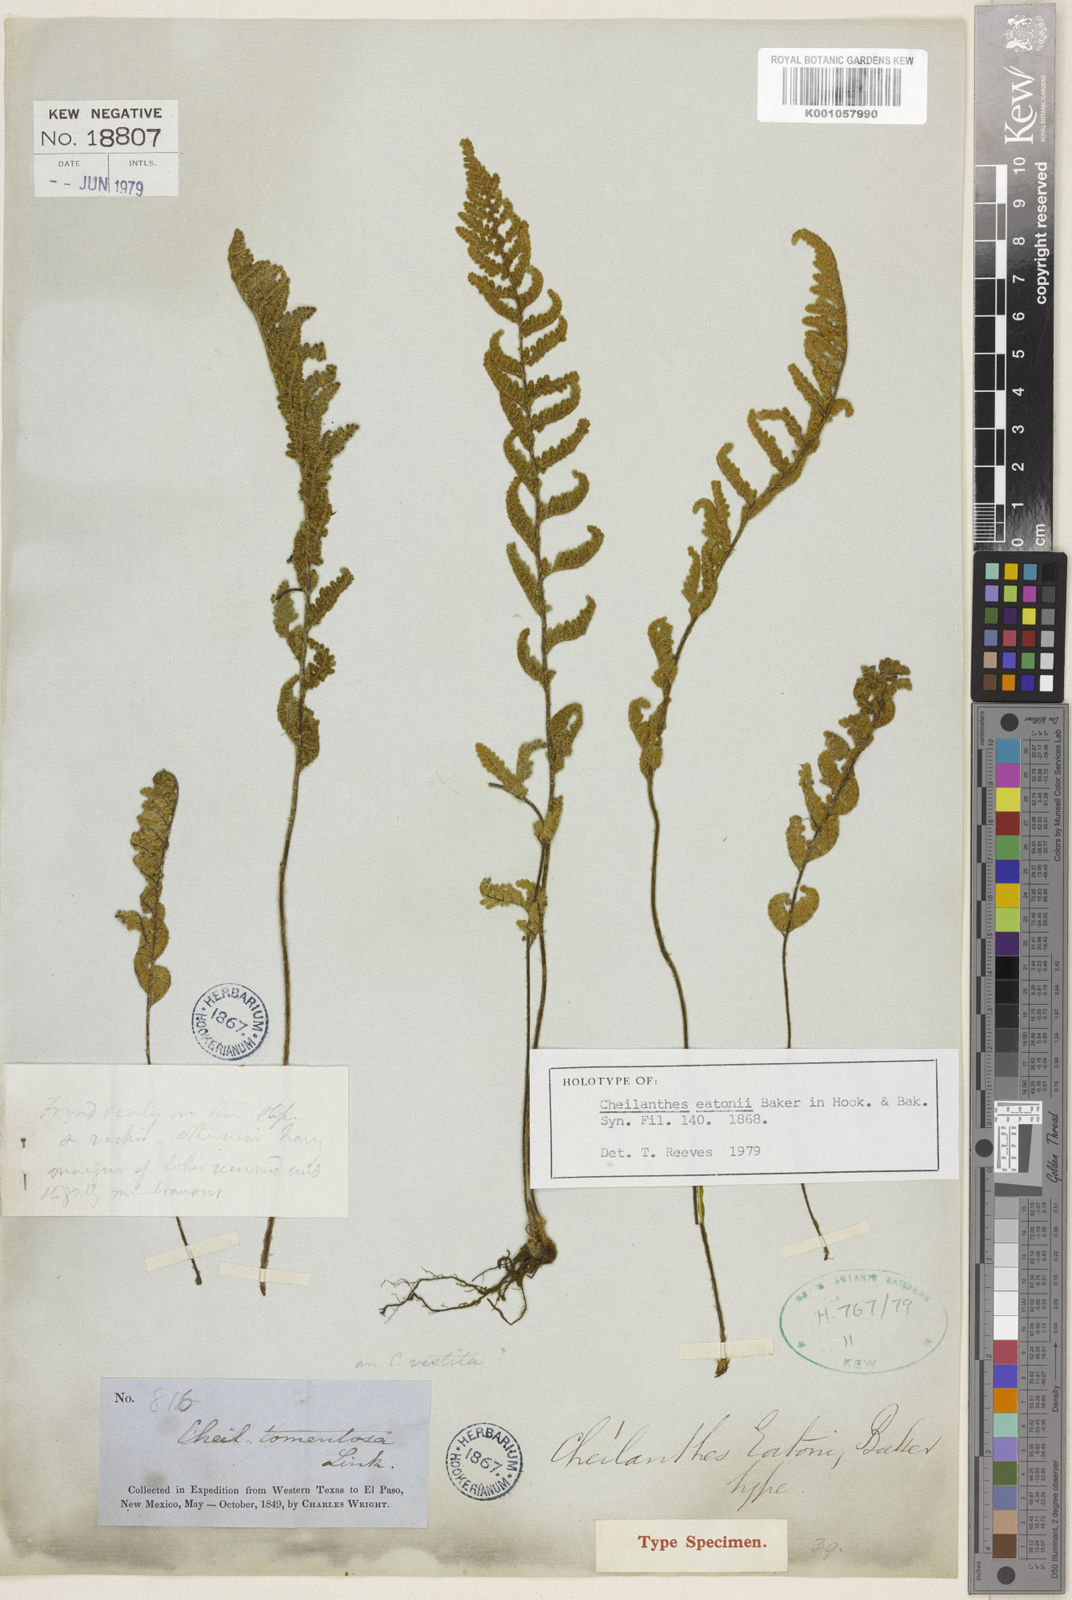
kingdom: Plantae
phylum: Tracheophyta
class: Polypodiopsida
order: Polypodiales
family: Pteridaceae
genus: Myriopteris
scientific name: Myriopteris rufa
